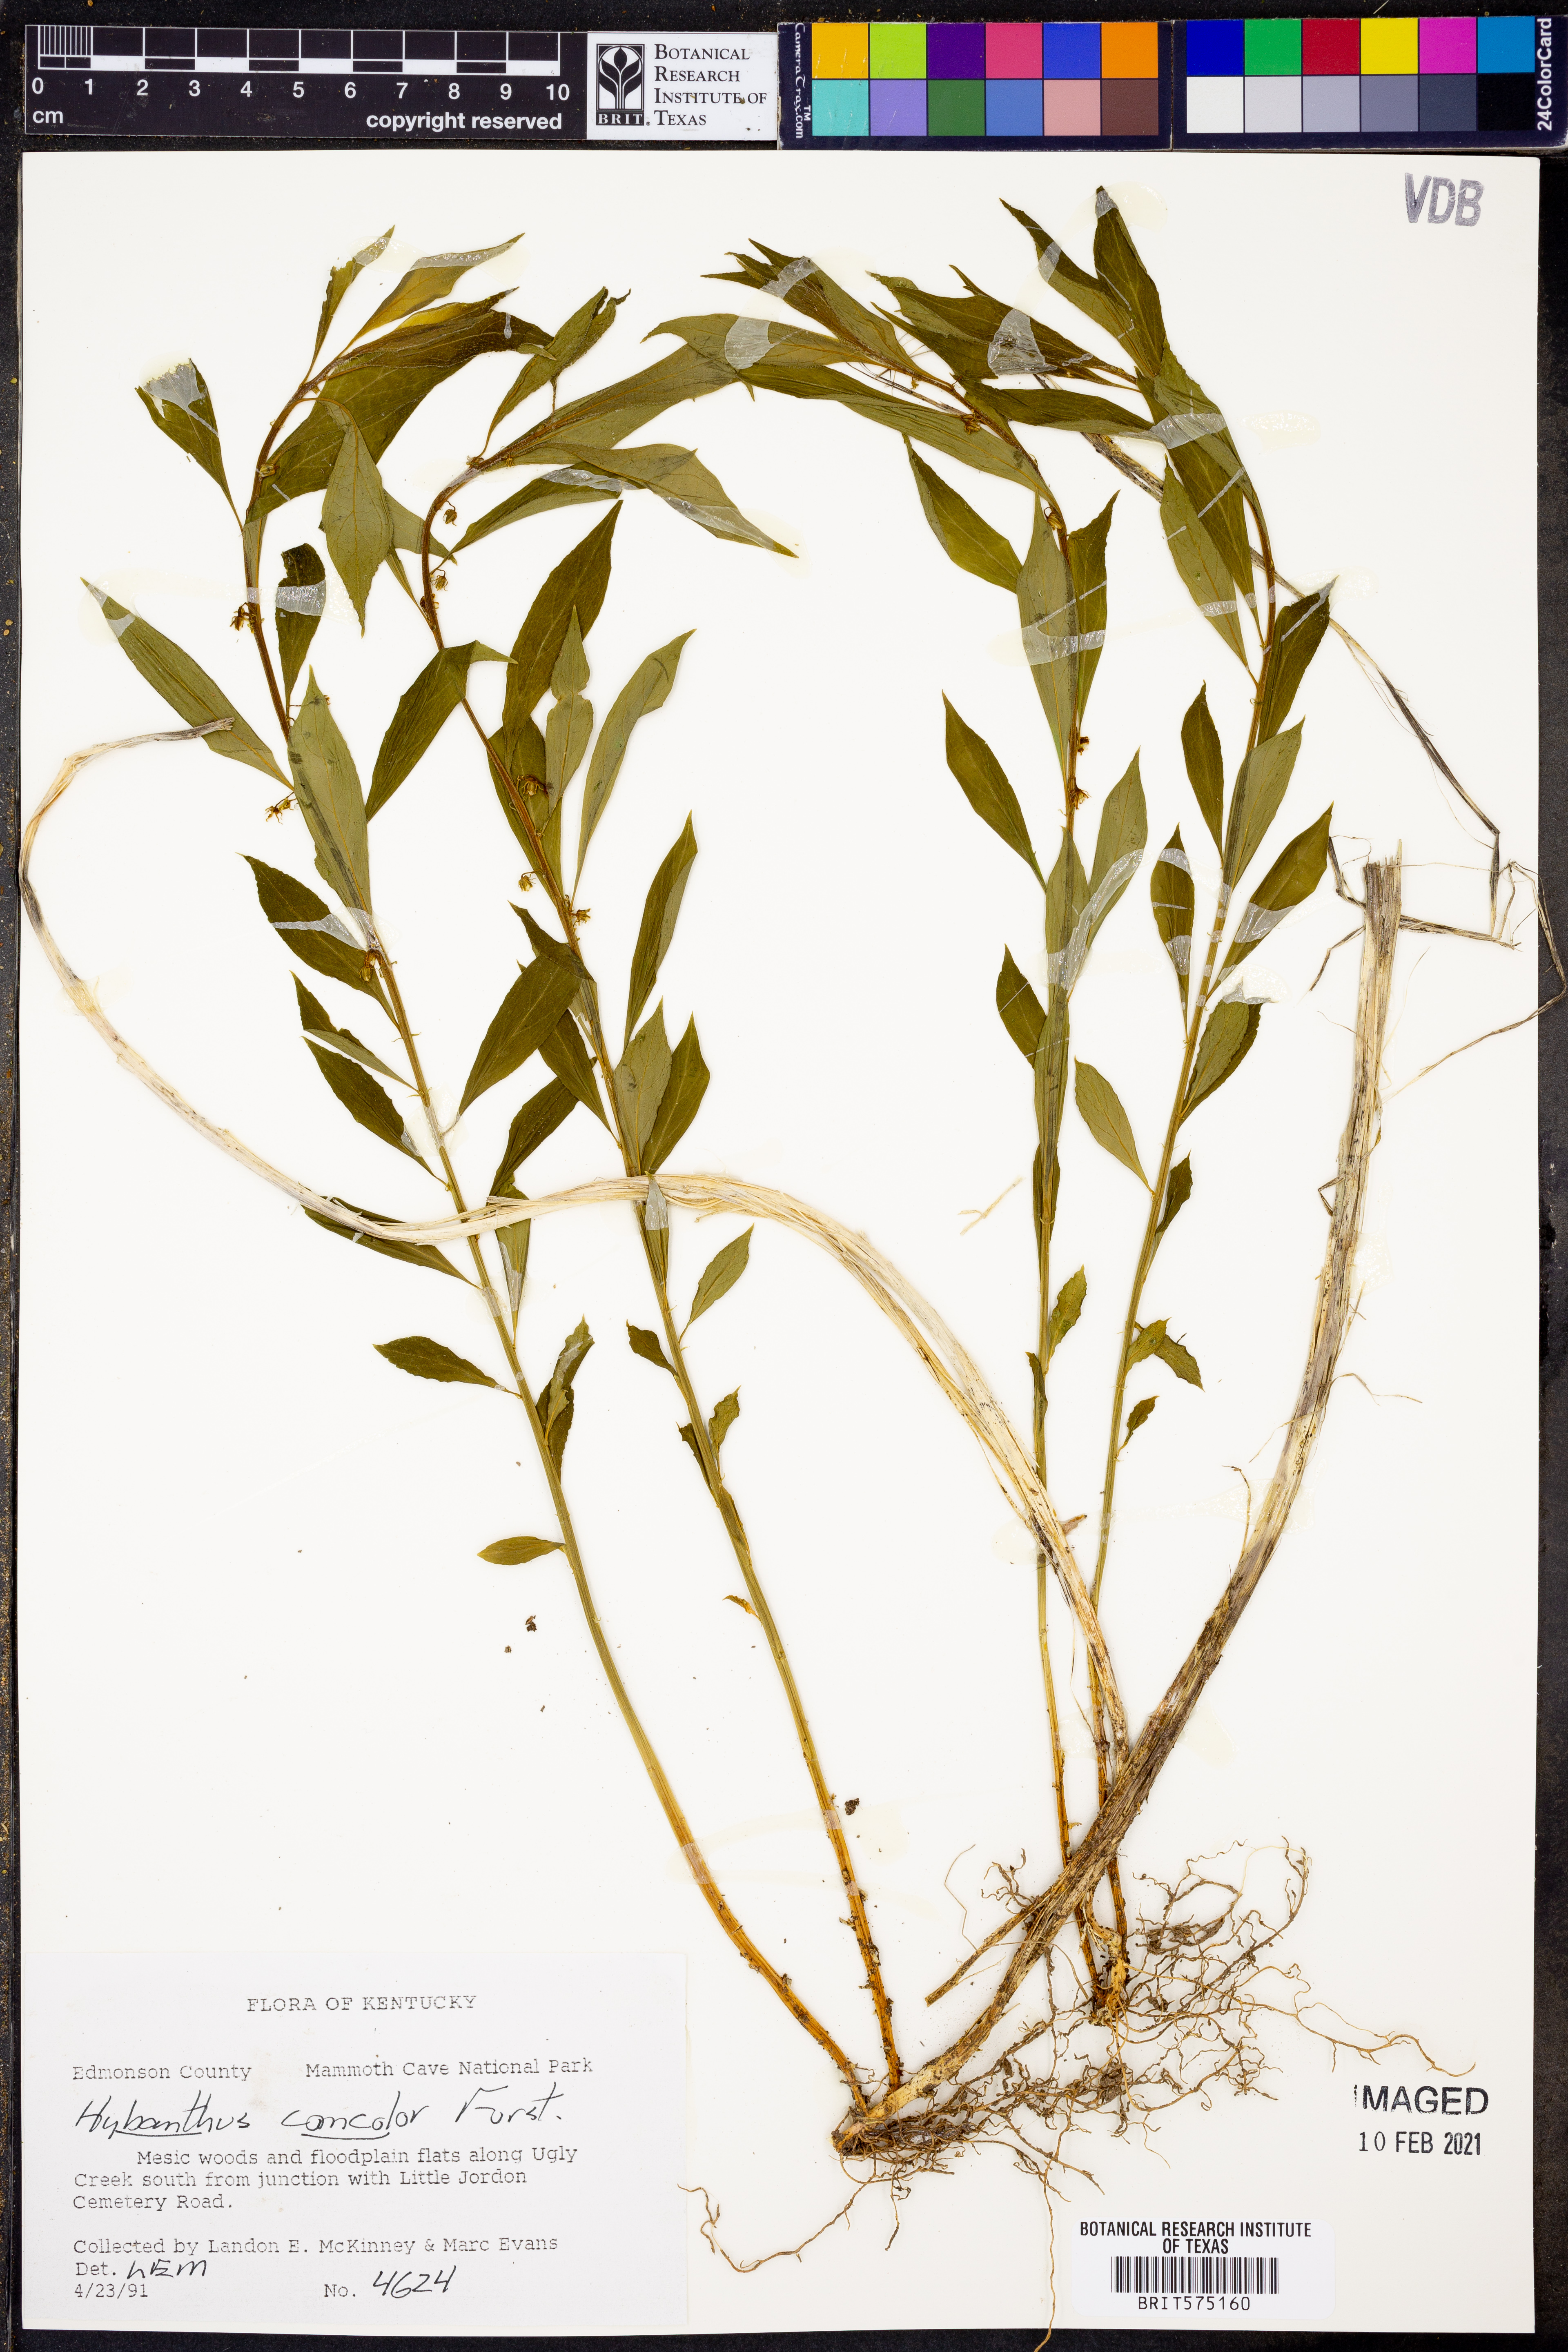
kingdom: Plantae
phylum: Tracheophyta
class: Magnoliopsida
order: Malpighiales
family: Violaceae
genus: Cubelium
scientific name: Cubelium concolor
